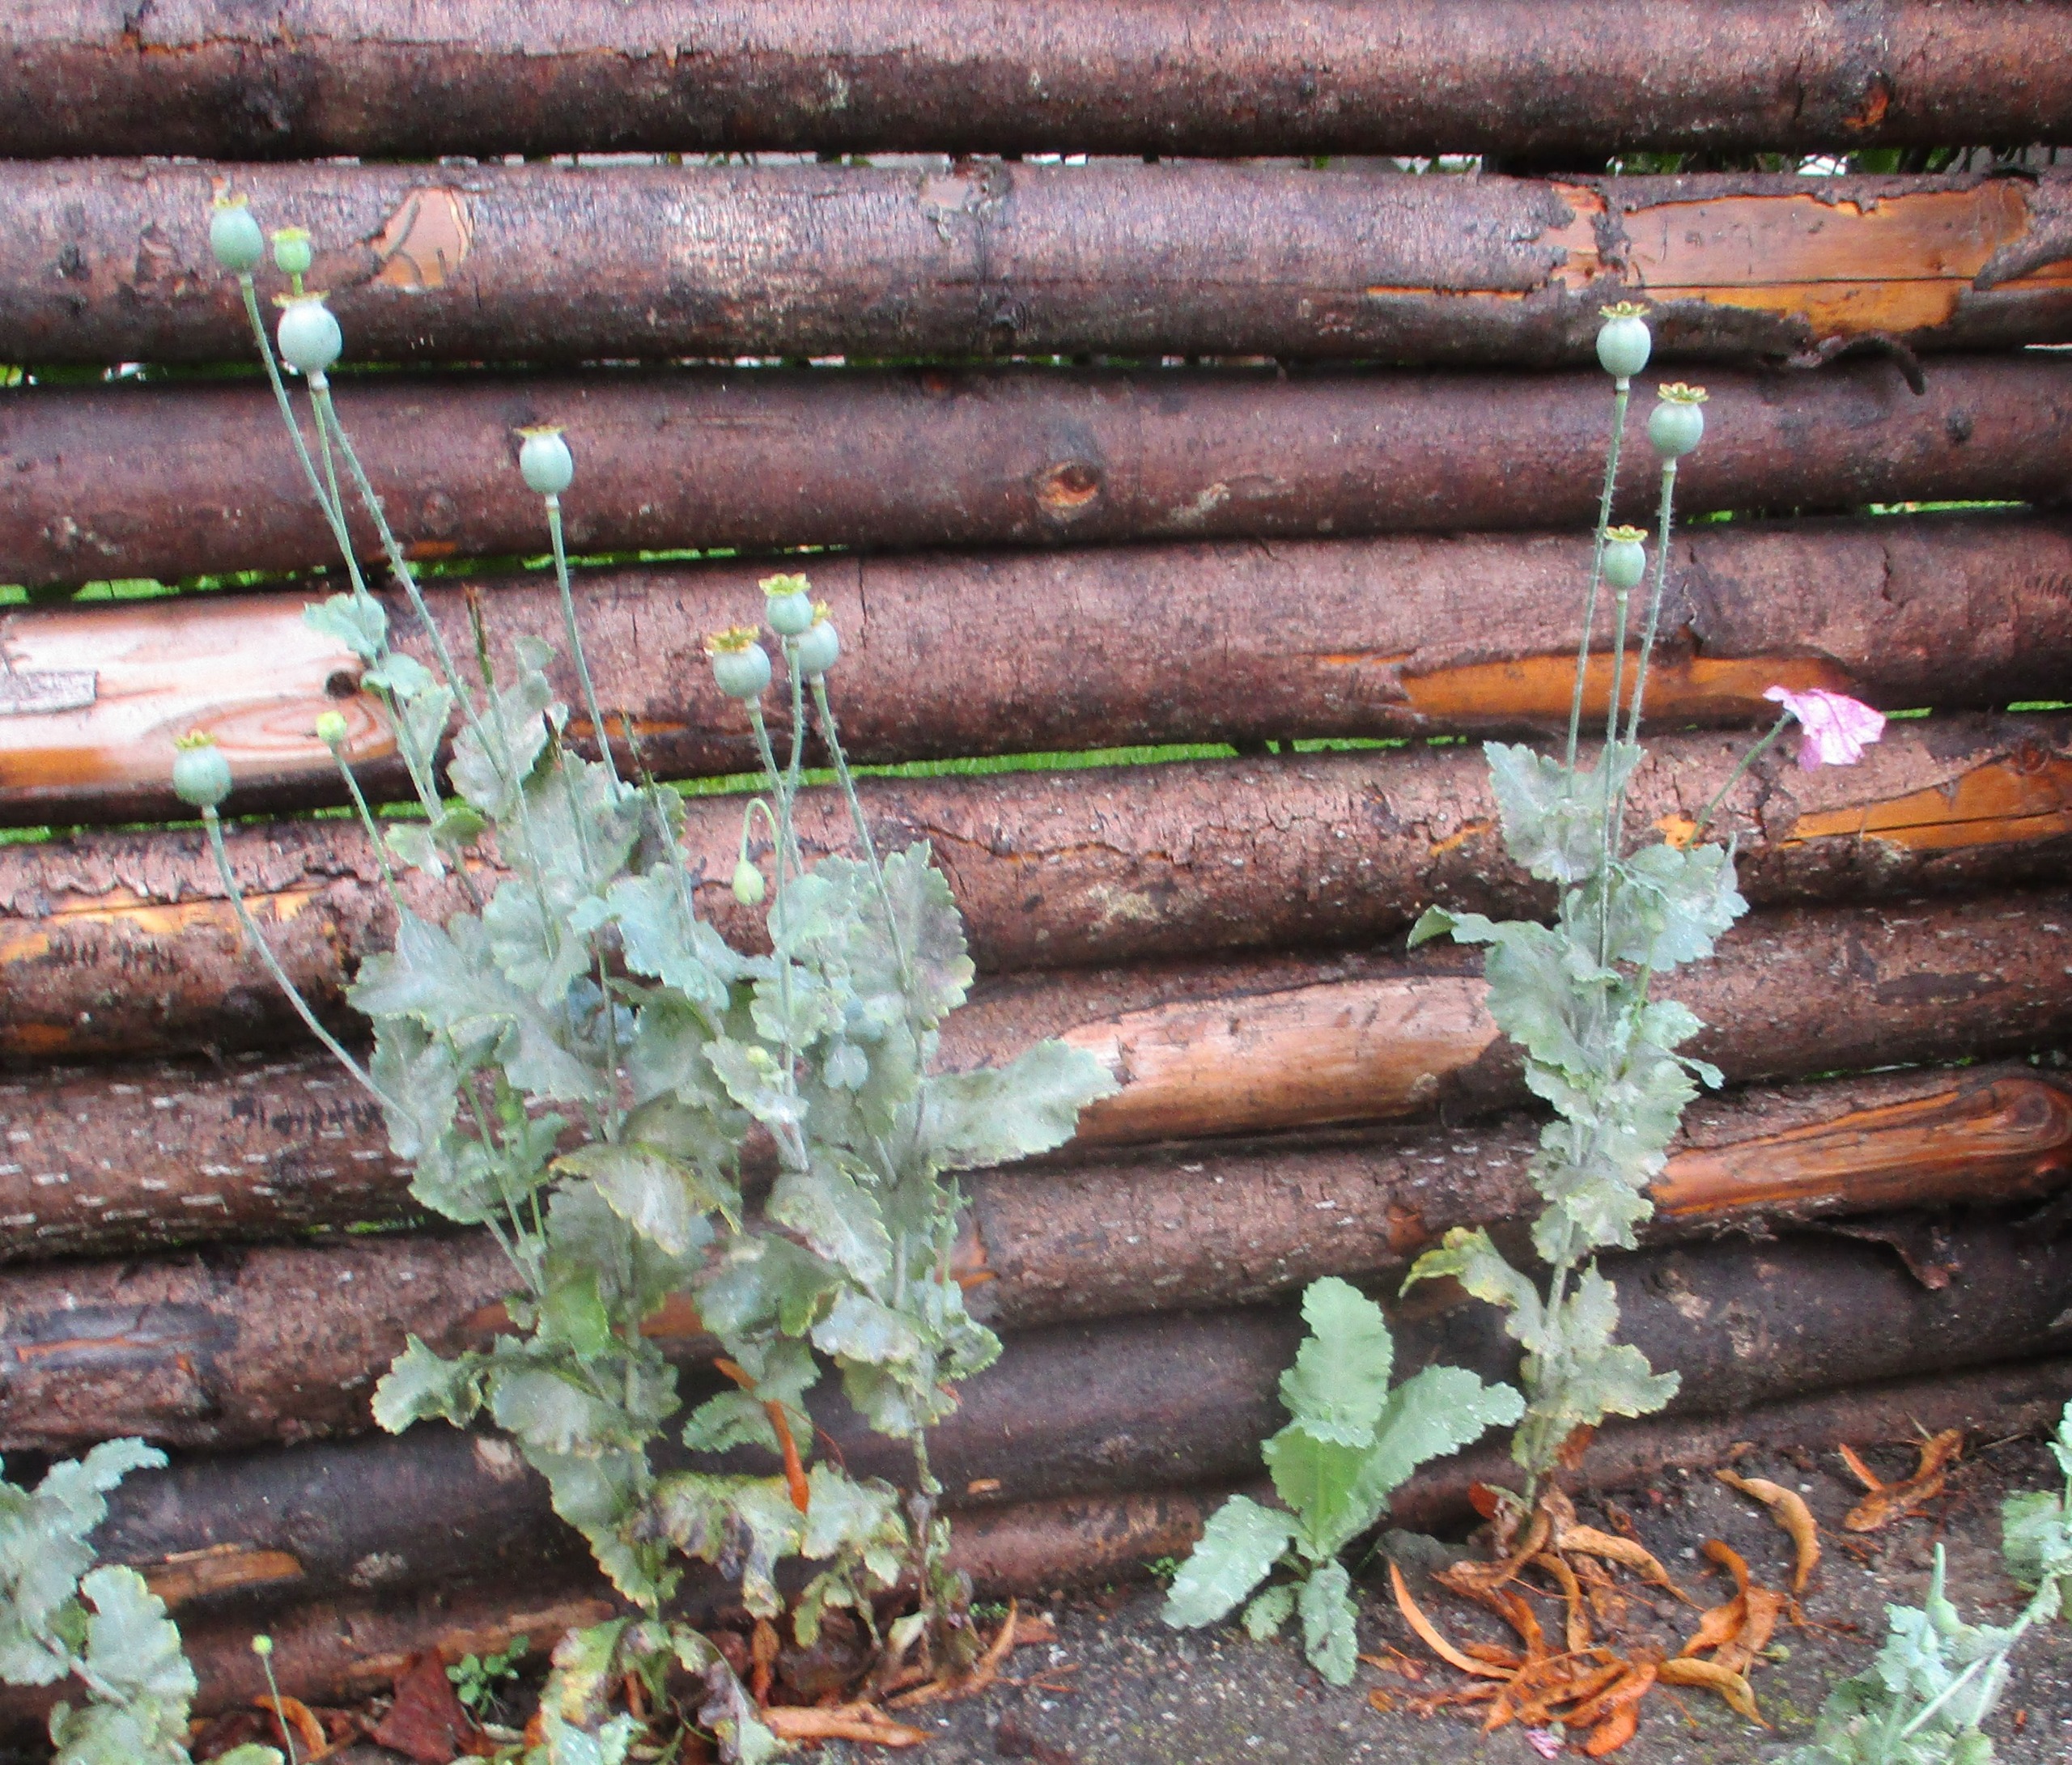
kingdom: Plantae
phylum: Tracheophyta
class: Magnoliopsida
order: Ranunculales
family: Papaveraceae
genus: Papaver
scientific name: Papaver somniferum
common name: Opium-valmue
